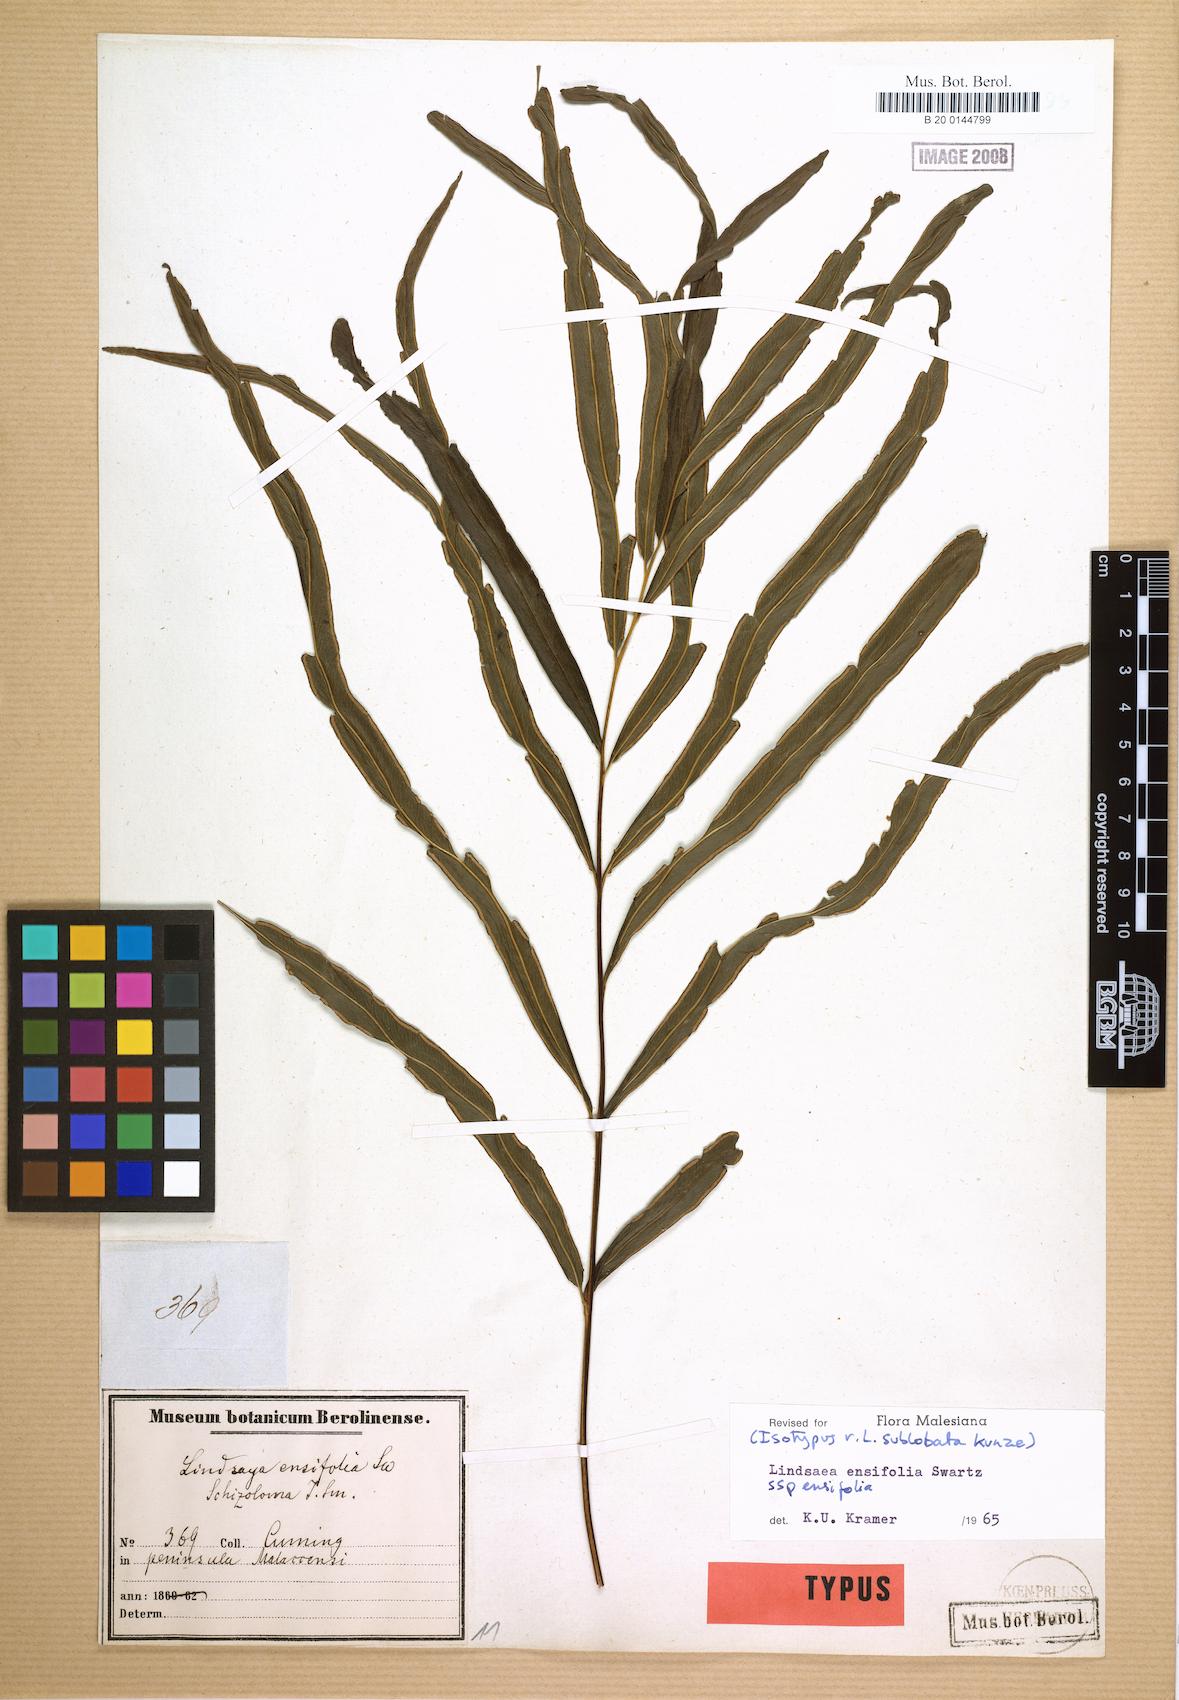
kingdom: Plantae
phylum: Tracheophyta
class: Polypodiopsida
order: Polypodiales
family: Lindsaeaceae
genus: Lindsaea
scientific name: Lindsaea ensifolia
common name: Graceful necklace fern
